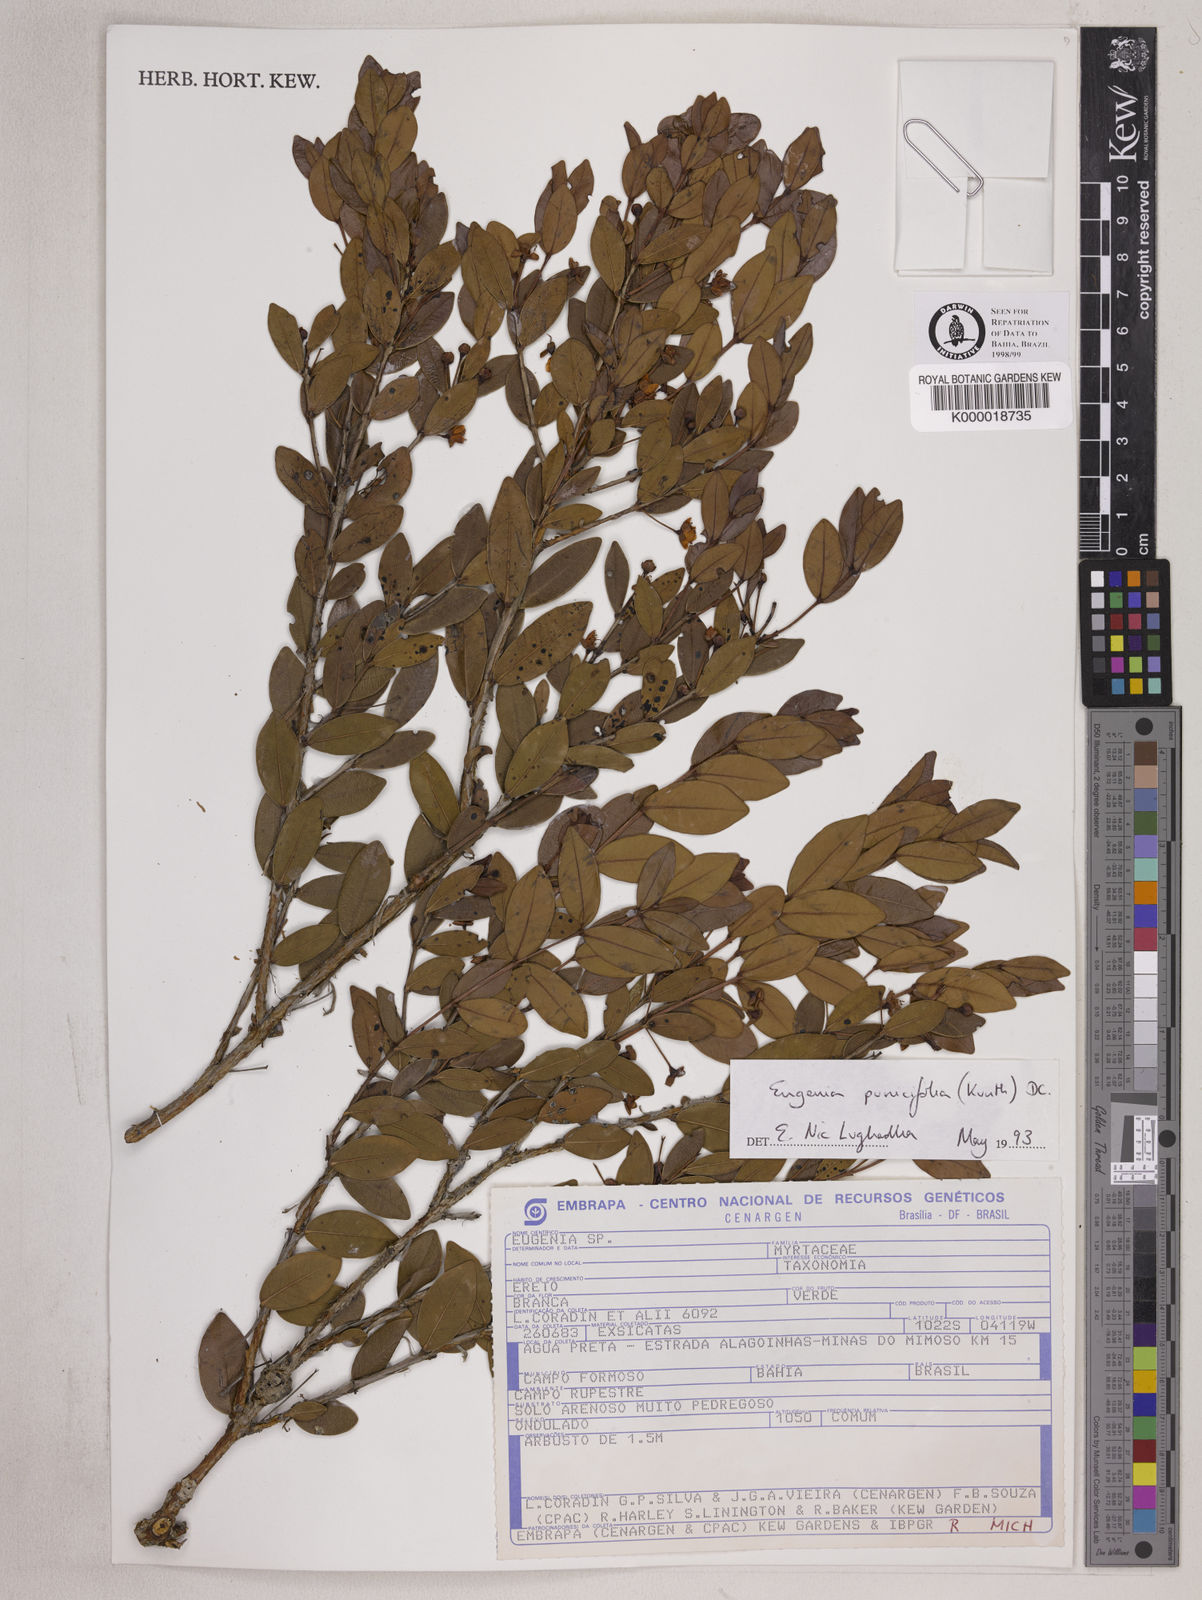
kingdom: Plantae
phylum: Tracheophyta
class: Magnoliopsida
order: Myrtales
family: Myrtaceae
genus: Eugenia
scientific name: Eugenia punicifolia
